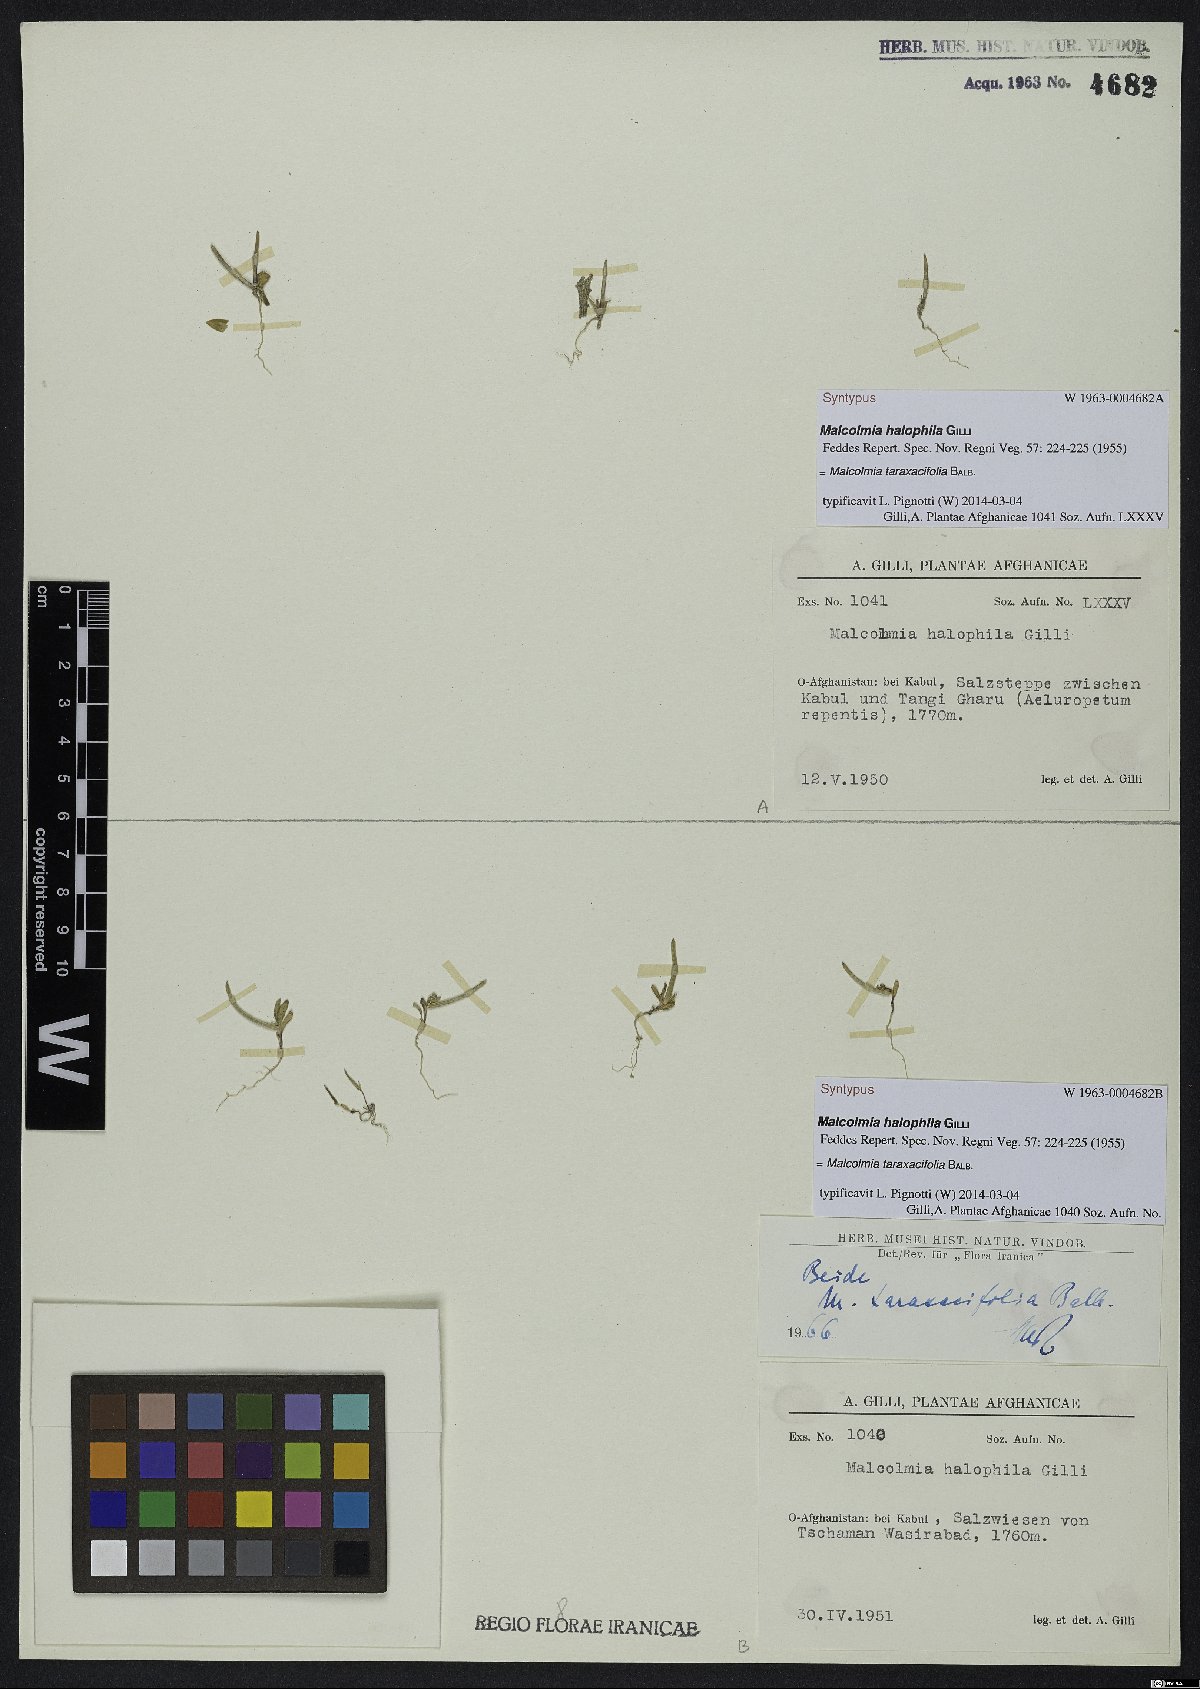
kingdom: Plantae
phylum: Tracheophyta
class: Magnoliopsida
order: Brassicales
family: Brassicaceae
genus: Strigosella
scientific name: Strigosella africana
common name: African mustard
